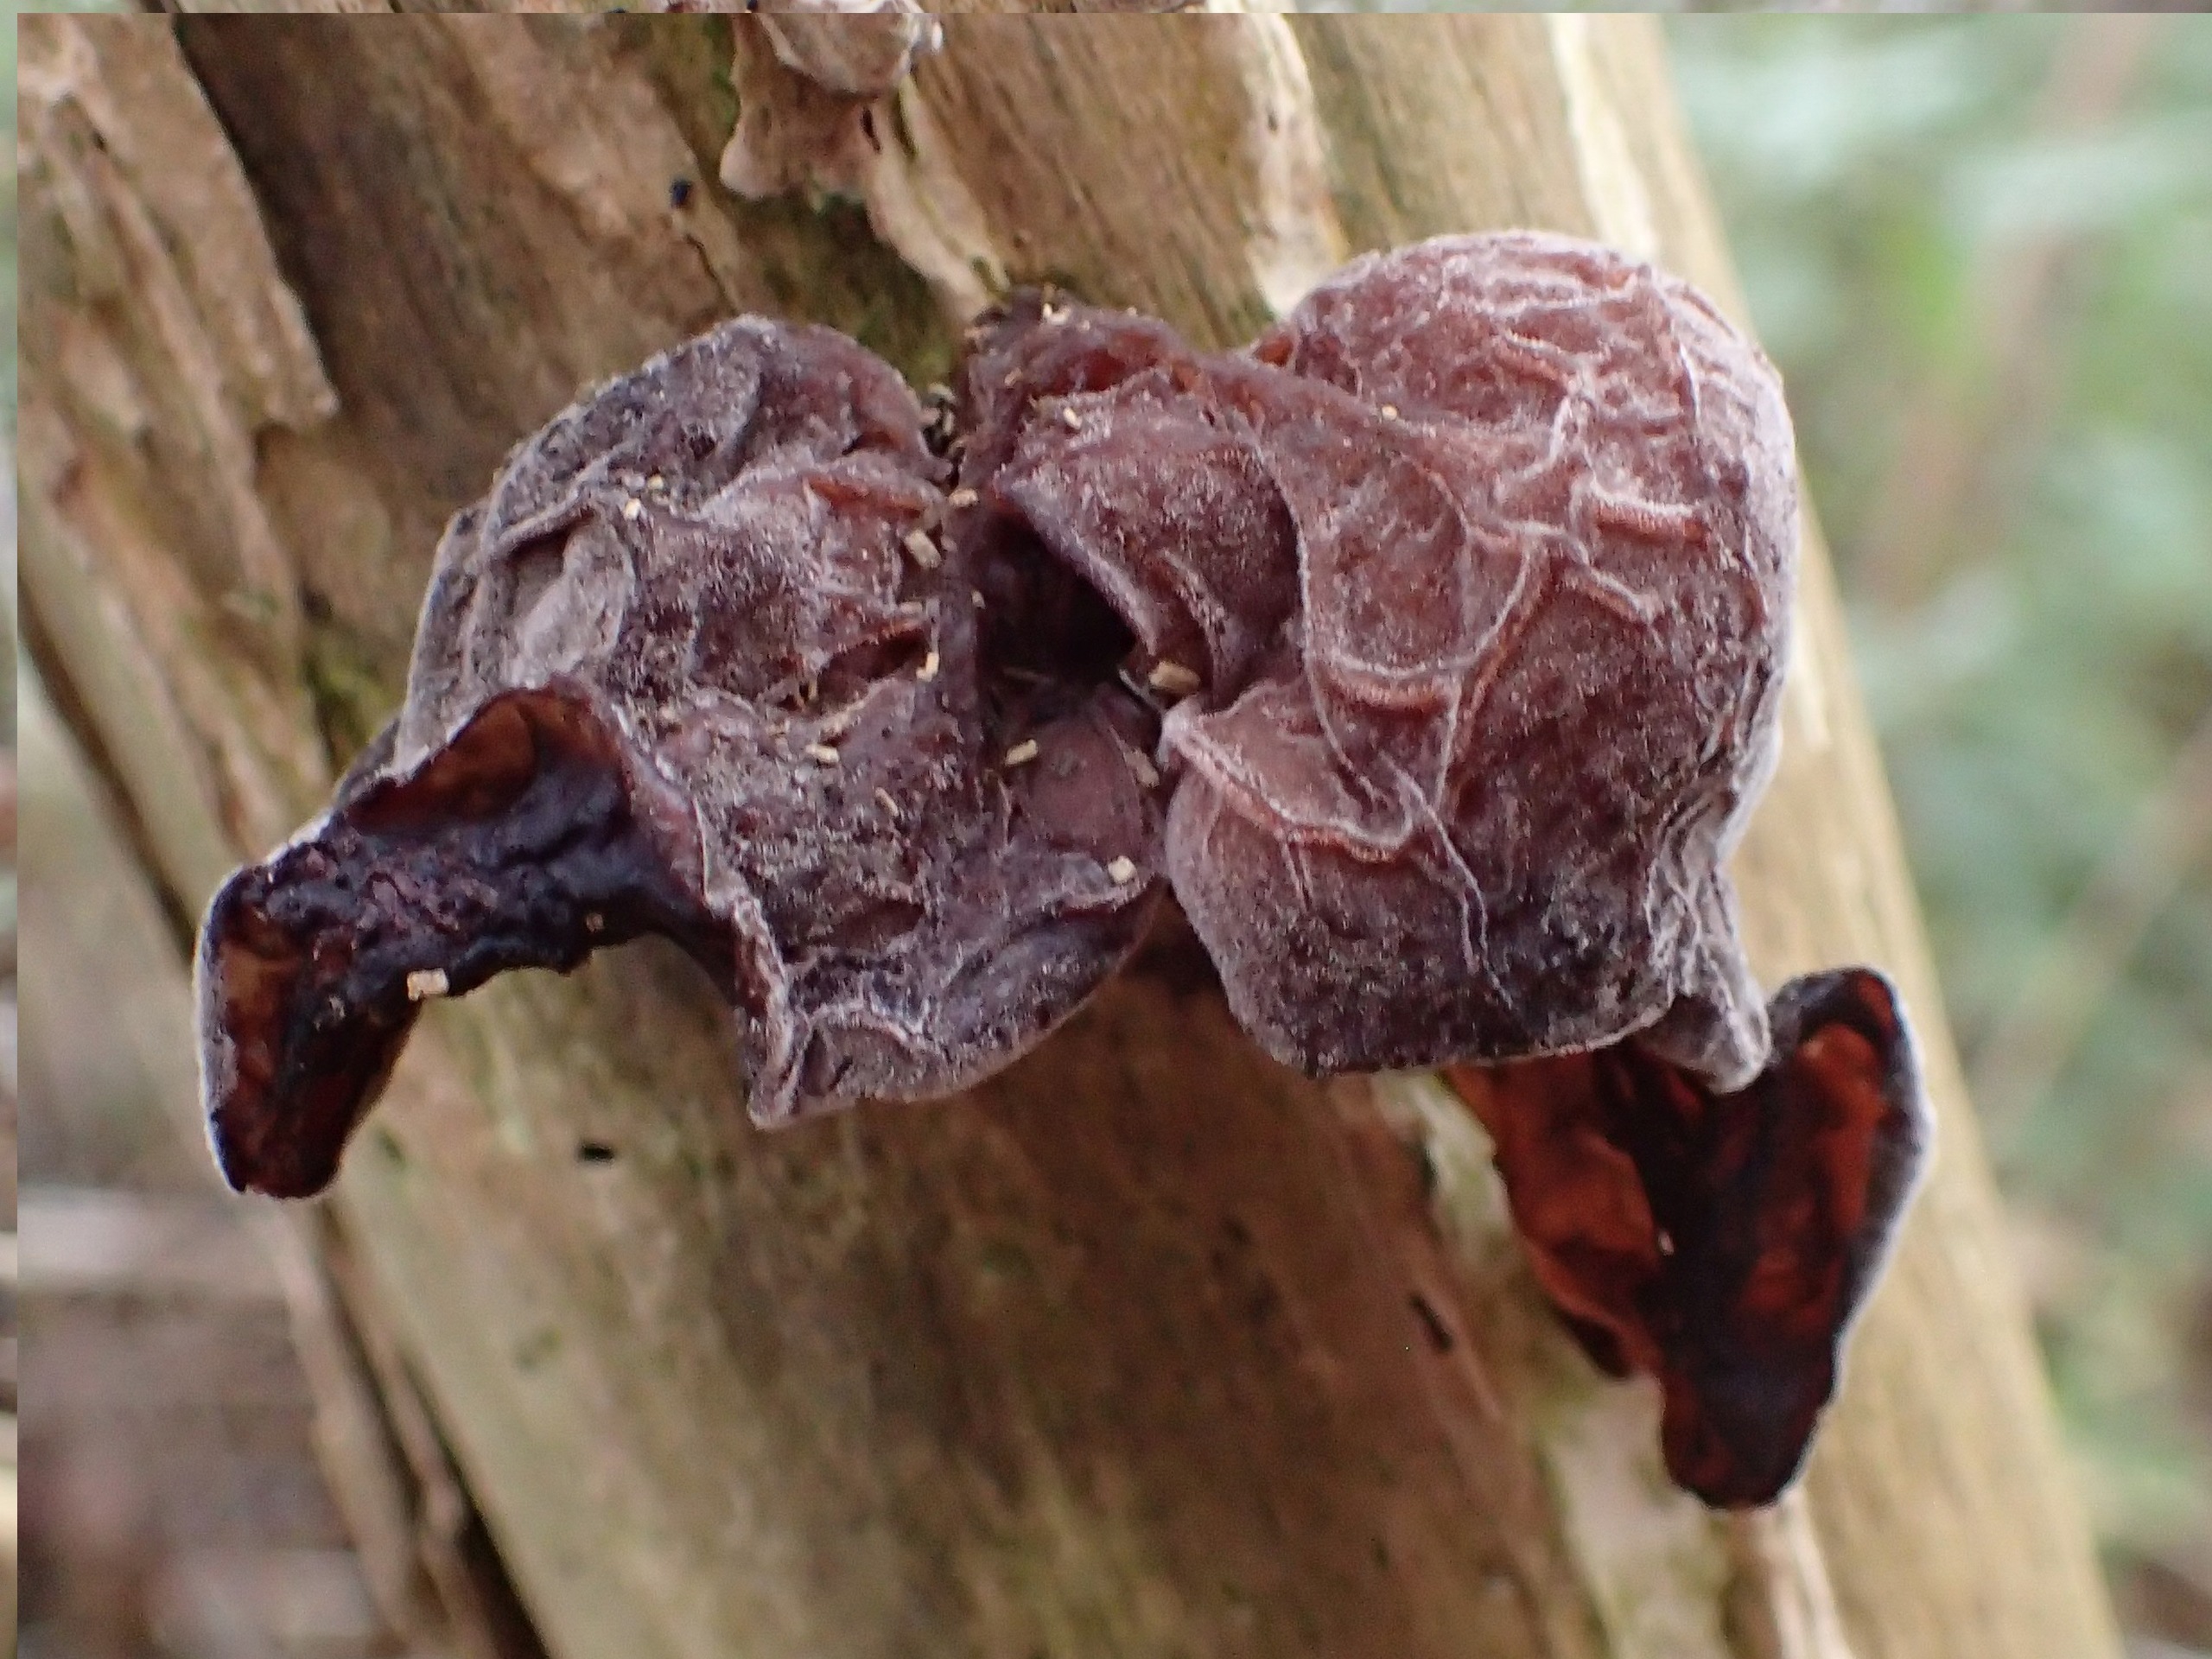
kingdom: Fungi
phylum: Basidiomycota
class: Agaricomycetes
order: Auriculariales
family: Auriculariaceae
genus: Auricularia
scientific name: Auricularia auricula-judae
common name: Almindelig judasøre
